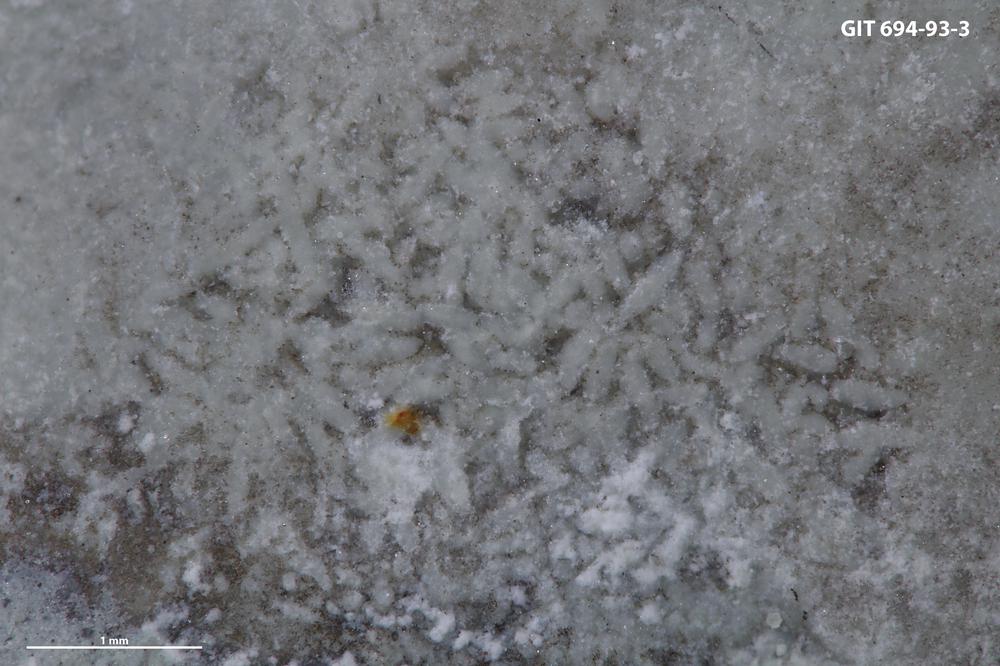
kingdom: Animalia
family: Coprulidae
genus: Coprulus
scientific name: Coprulus
